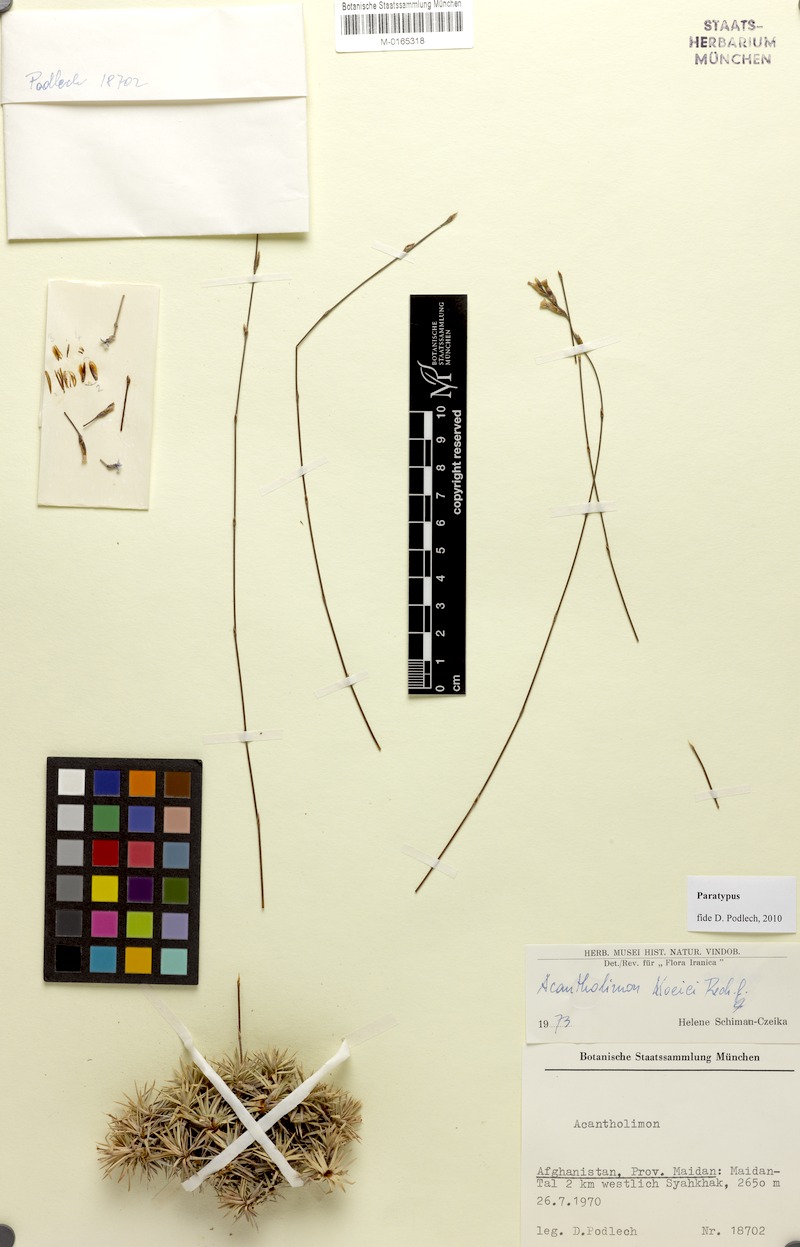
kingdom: Plantae
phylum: Tracheophyta
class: Magnoliopsida
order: Caryophyllales
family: Plumbaginaceae
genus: Acantholimon
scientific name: Acantholimon koeiei
